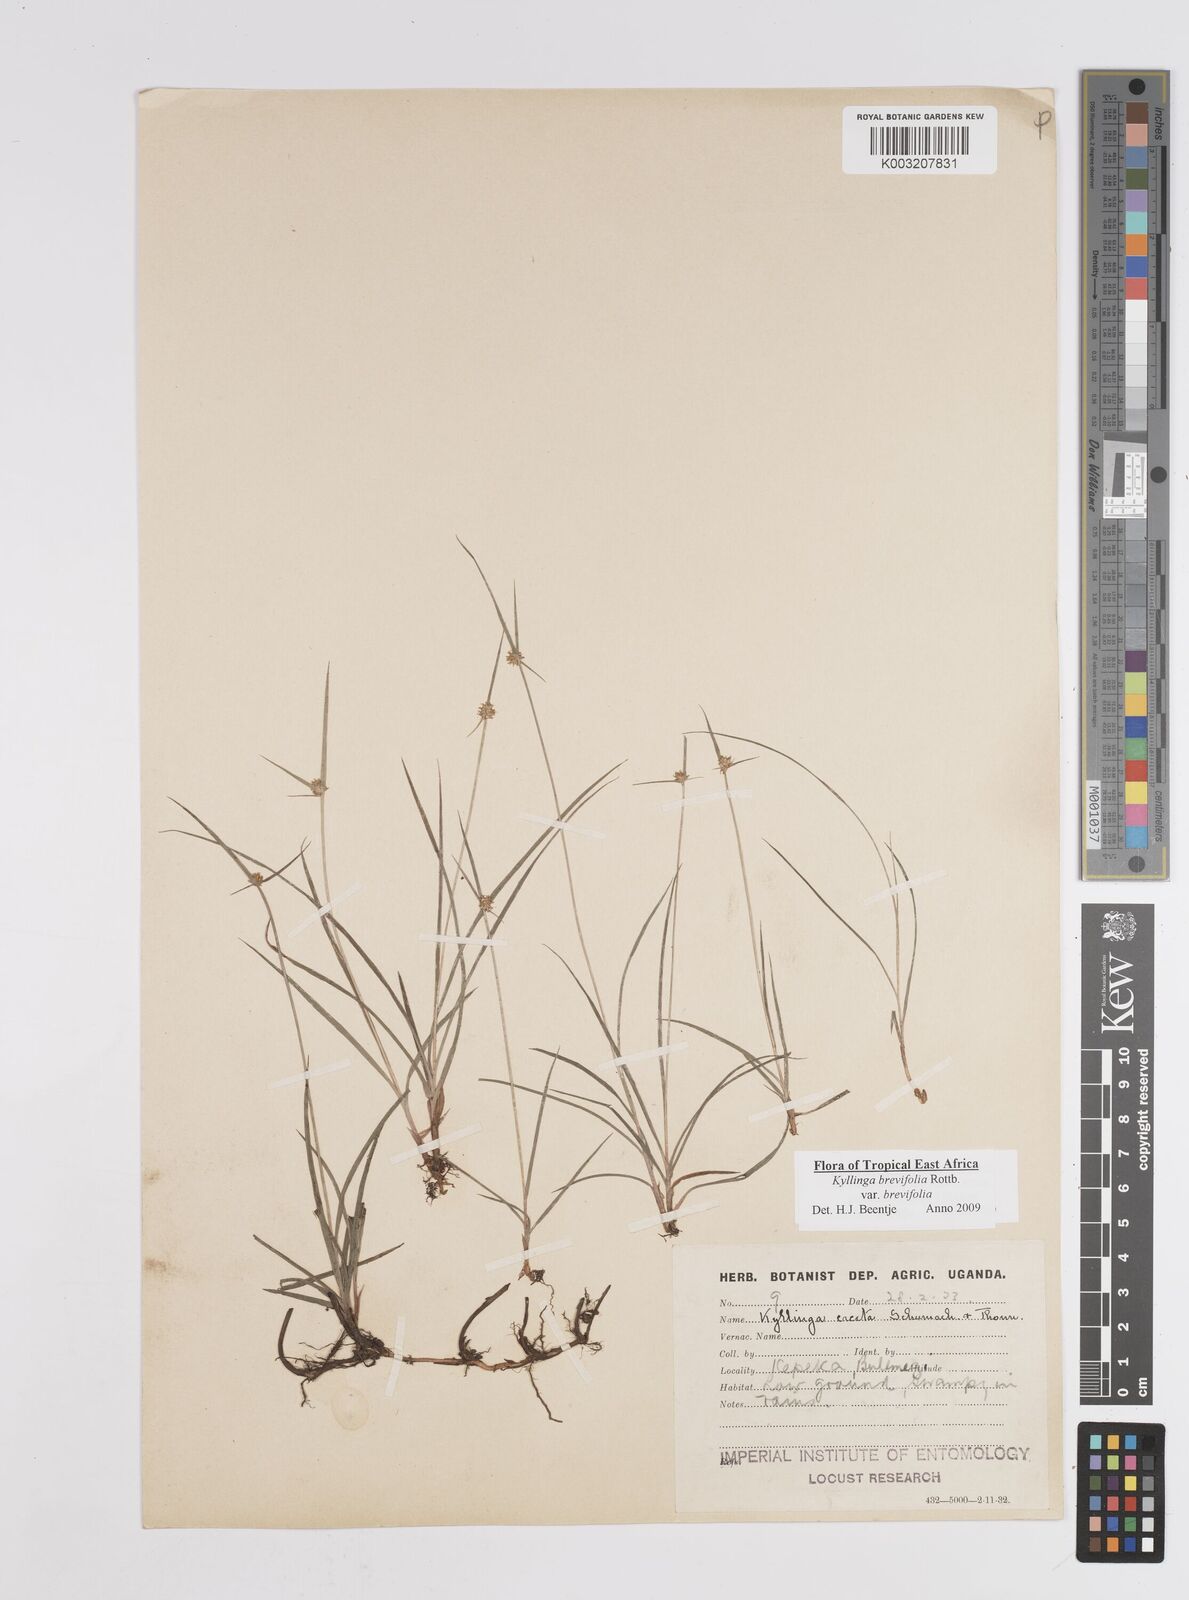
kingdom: Plantae
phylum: Tracheophyta
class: Liliopsida
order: Poales
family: Cyperaceae
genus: Cyperus
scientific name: Cyperus erectus
